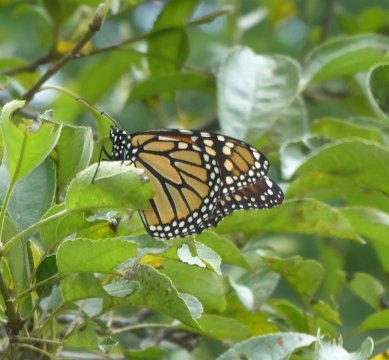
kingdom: Animalia
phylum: Arthropoda
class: Insecta
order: Lepidoptera
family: Nymphalidae
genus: Danaus
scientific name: Danaus plexippus
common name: Monarch
